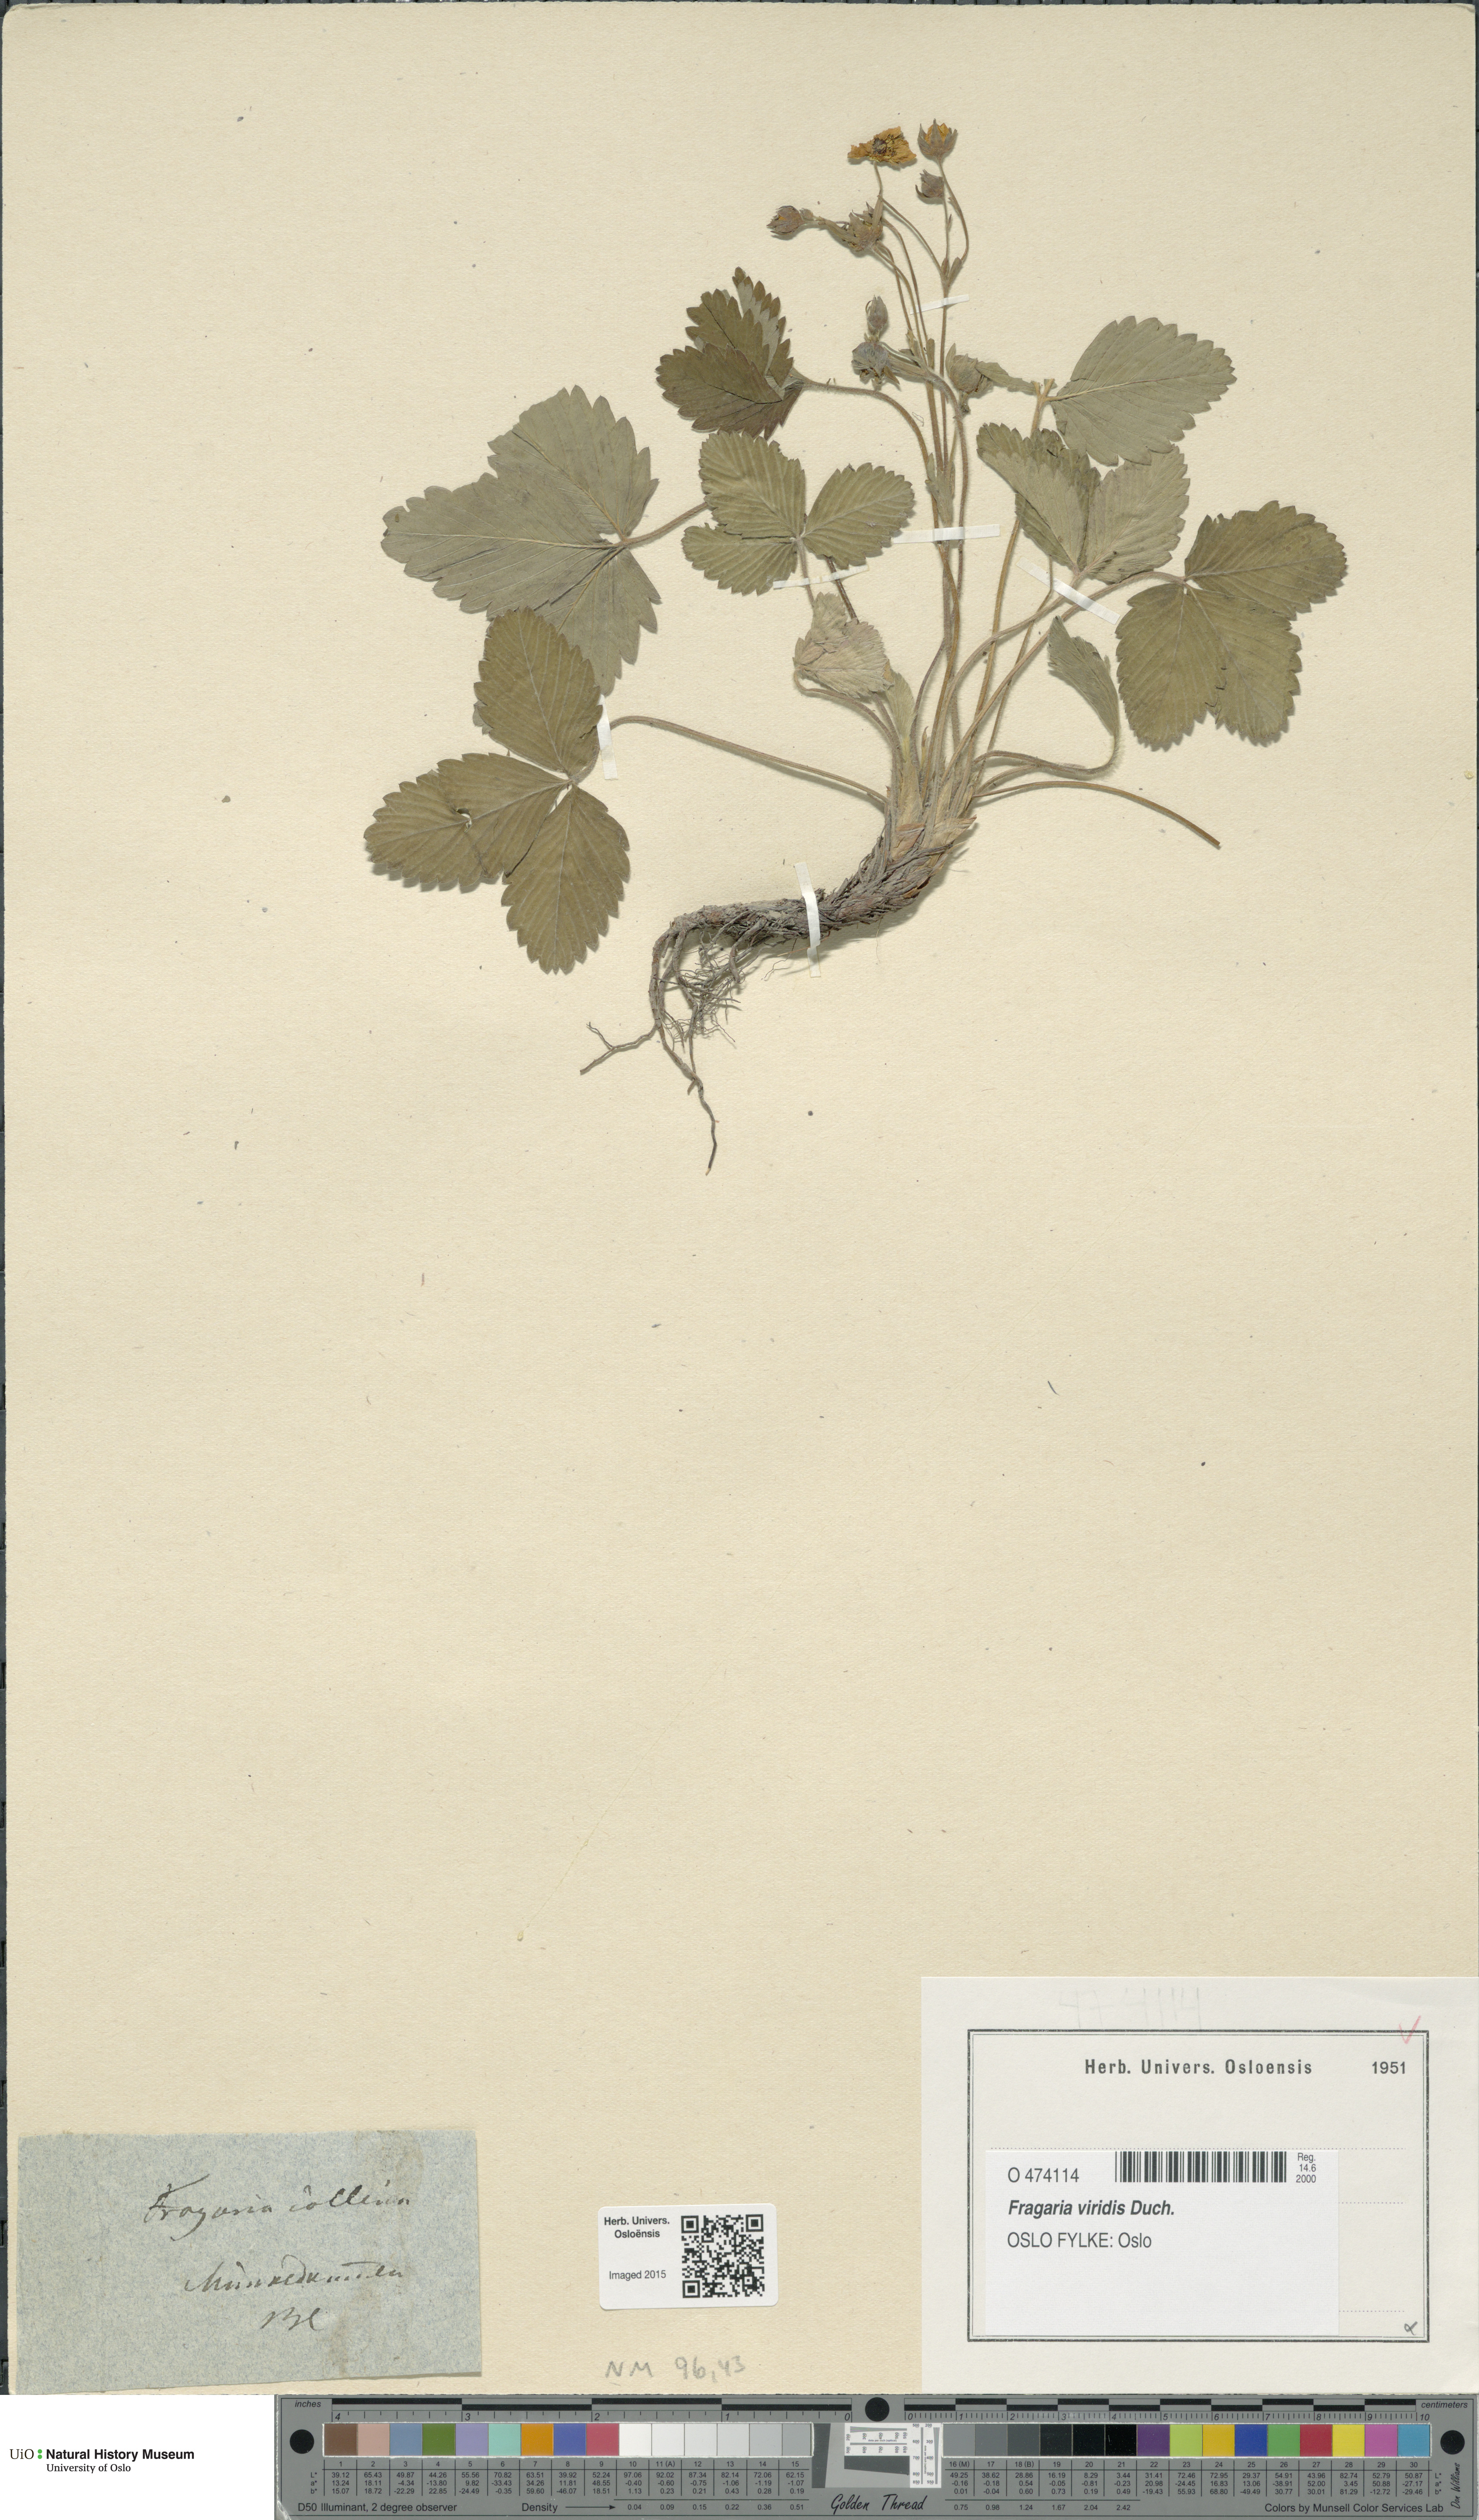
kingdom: Plantae
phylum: Tracheophyta
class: Magnoliopsida
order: Rosales
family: Rosaceae
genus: Fragaria
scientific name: Fragaria viridis
